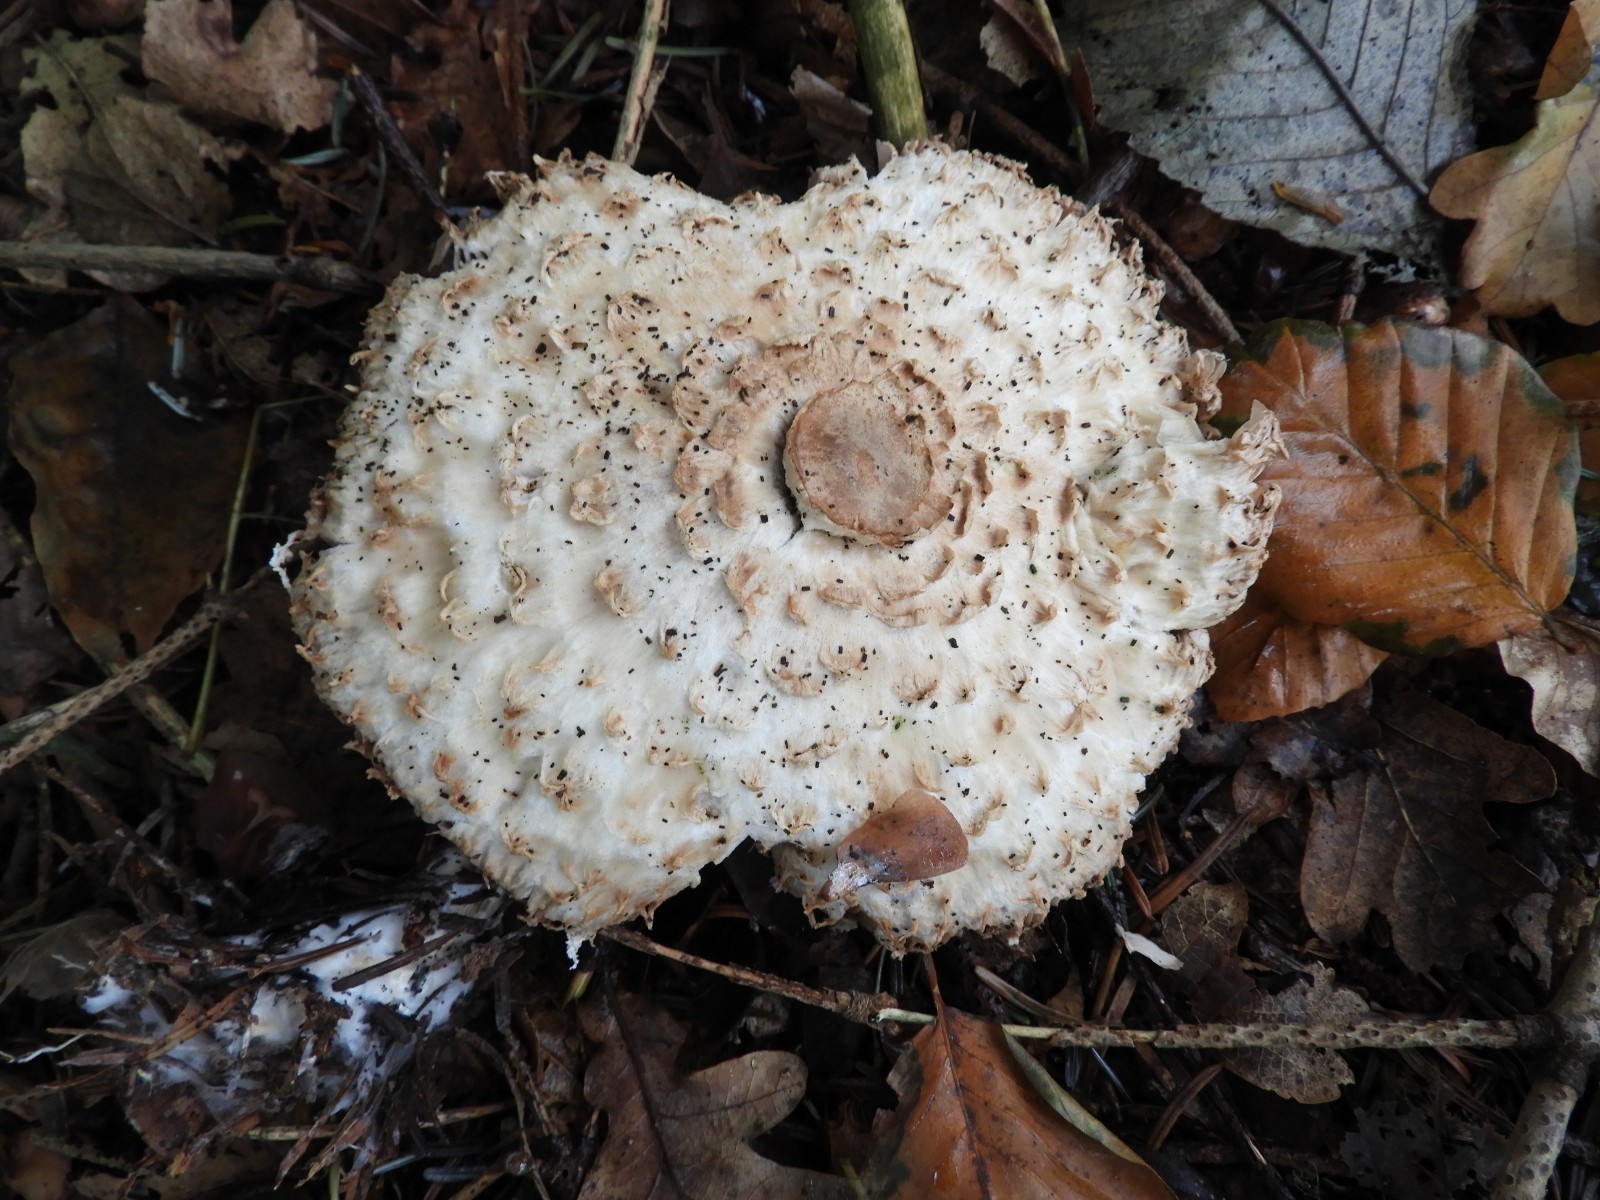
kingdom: Fungi
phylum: Basidiomycota
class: Agaricomycetes
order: Agaricales
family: Agaricaceae
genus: Leucoagaricus
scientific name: Leucoagaricus nympharum
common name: gran-silkehat
